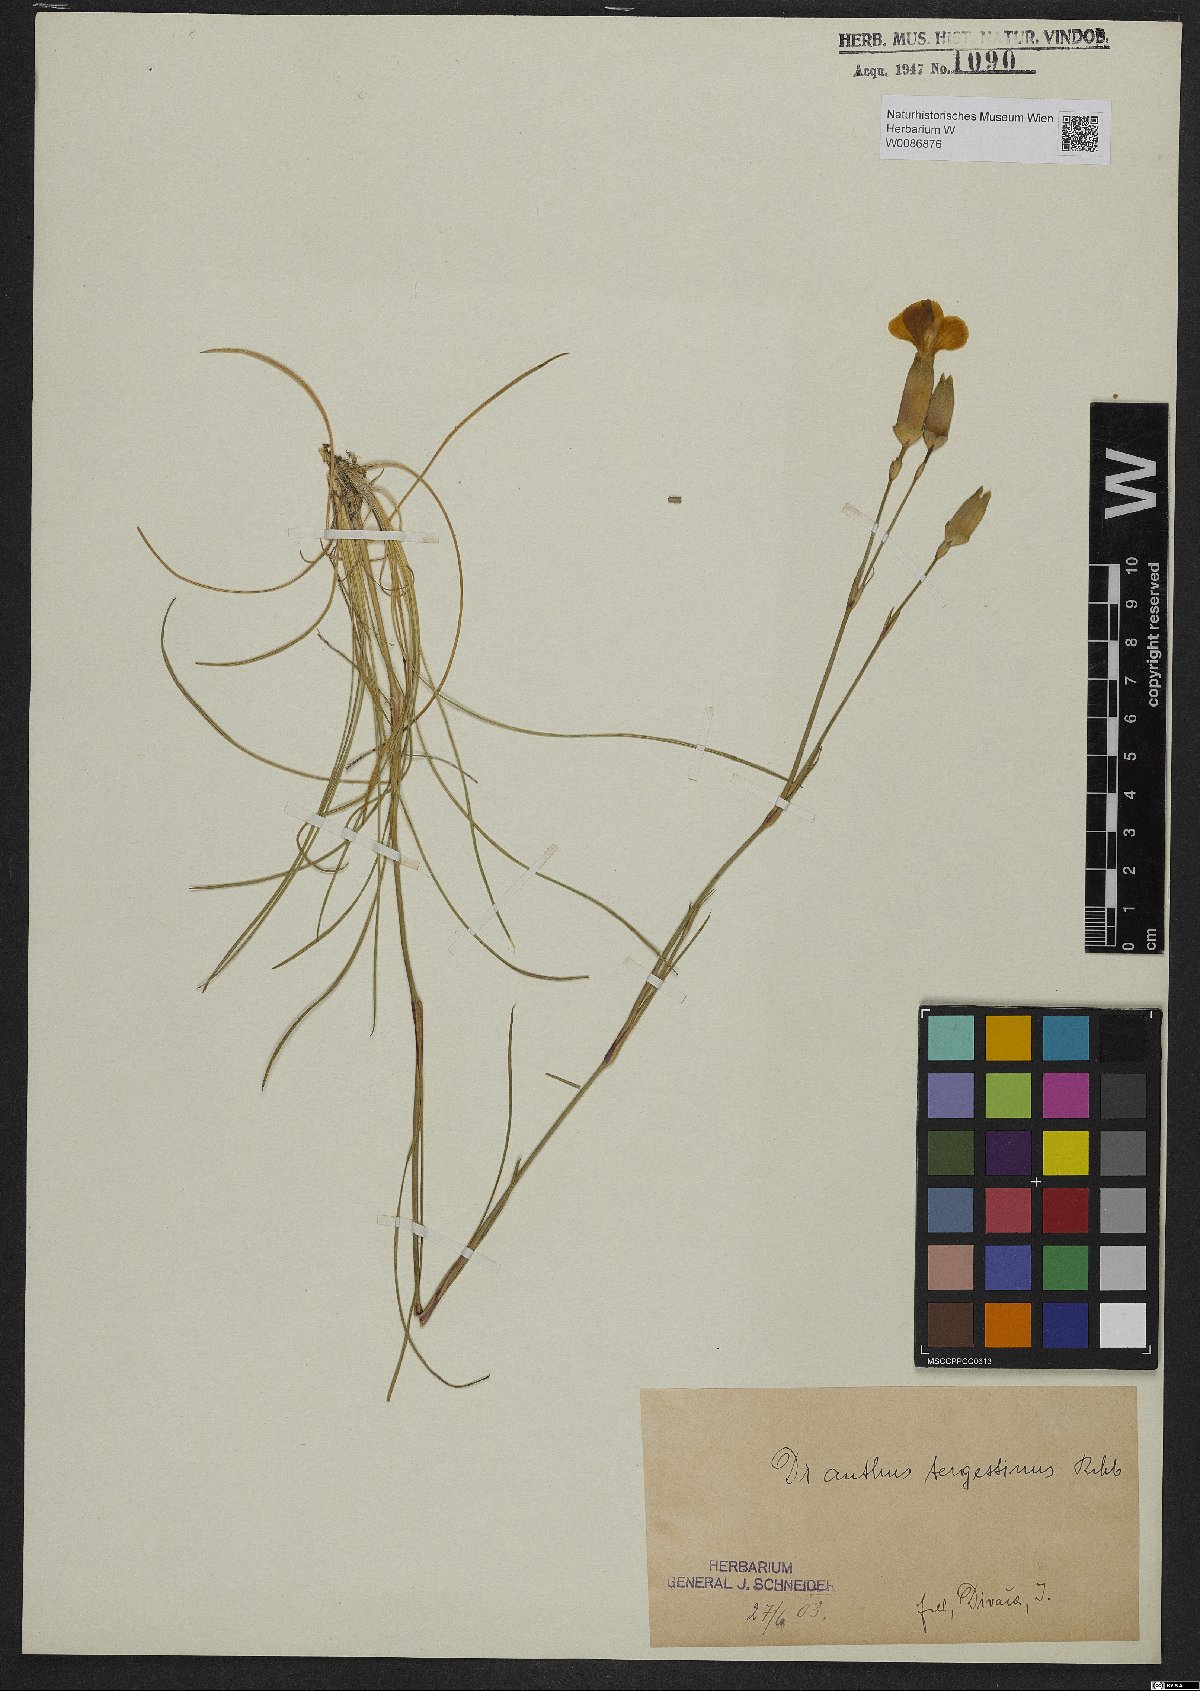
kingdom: Plantae
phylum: Tracheophyta
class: Magnoliopsida
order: Caryophyllales
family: Caryophyllaceae
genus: Dianthus
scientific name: Dianthus sylvestris
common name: Wood pink
